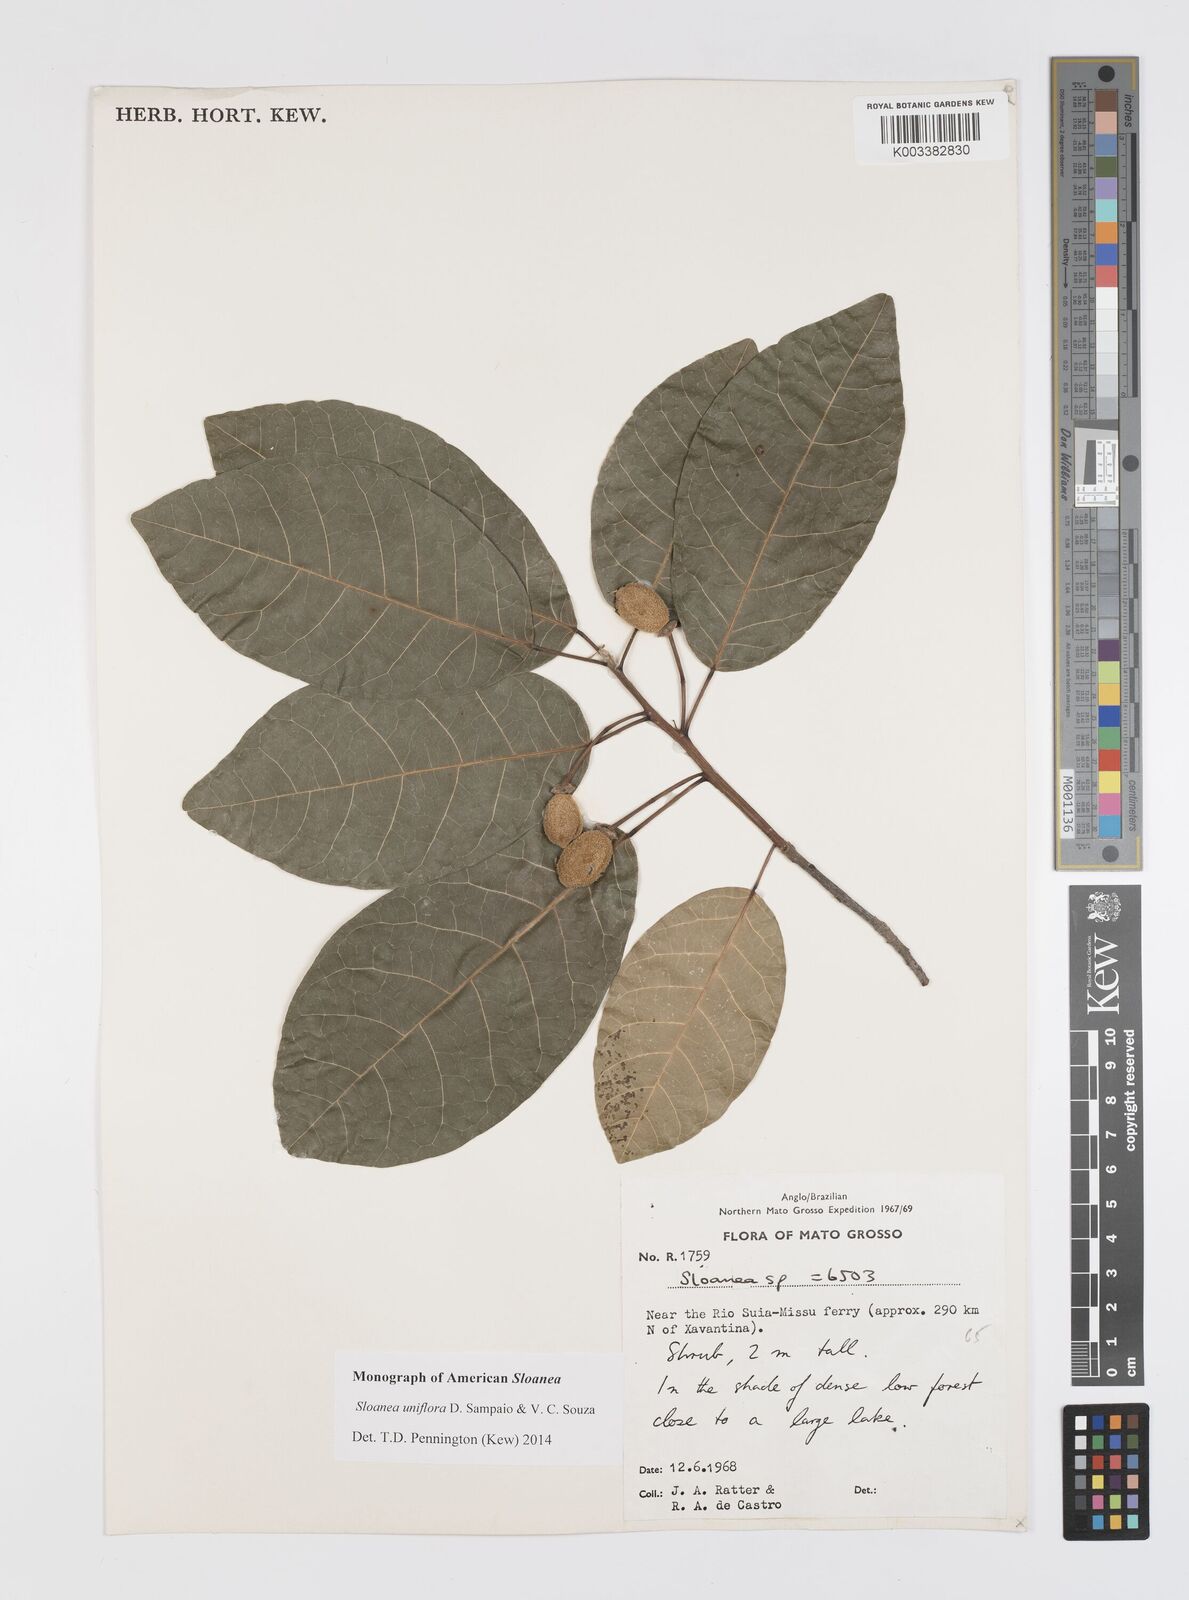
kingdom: Plantae
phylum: Tracheophyta
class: Magnoliopsida
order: Oxalidales
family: Elaeocarpaceae
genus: Sloanea
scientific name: Sloanea uniflora
